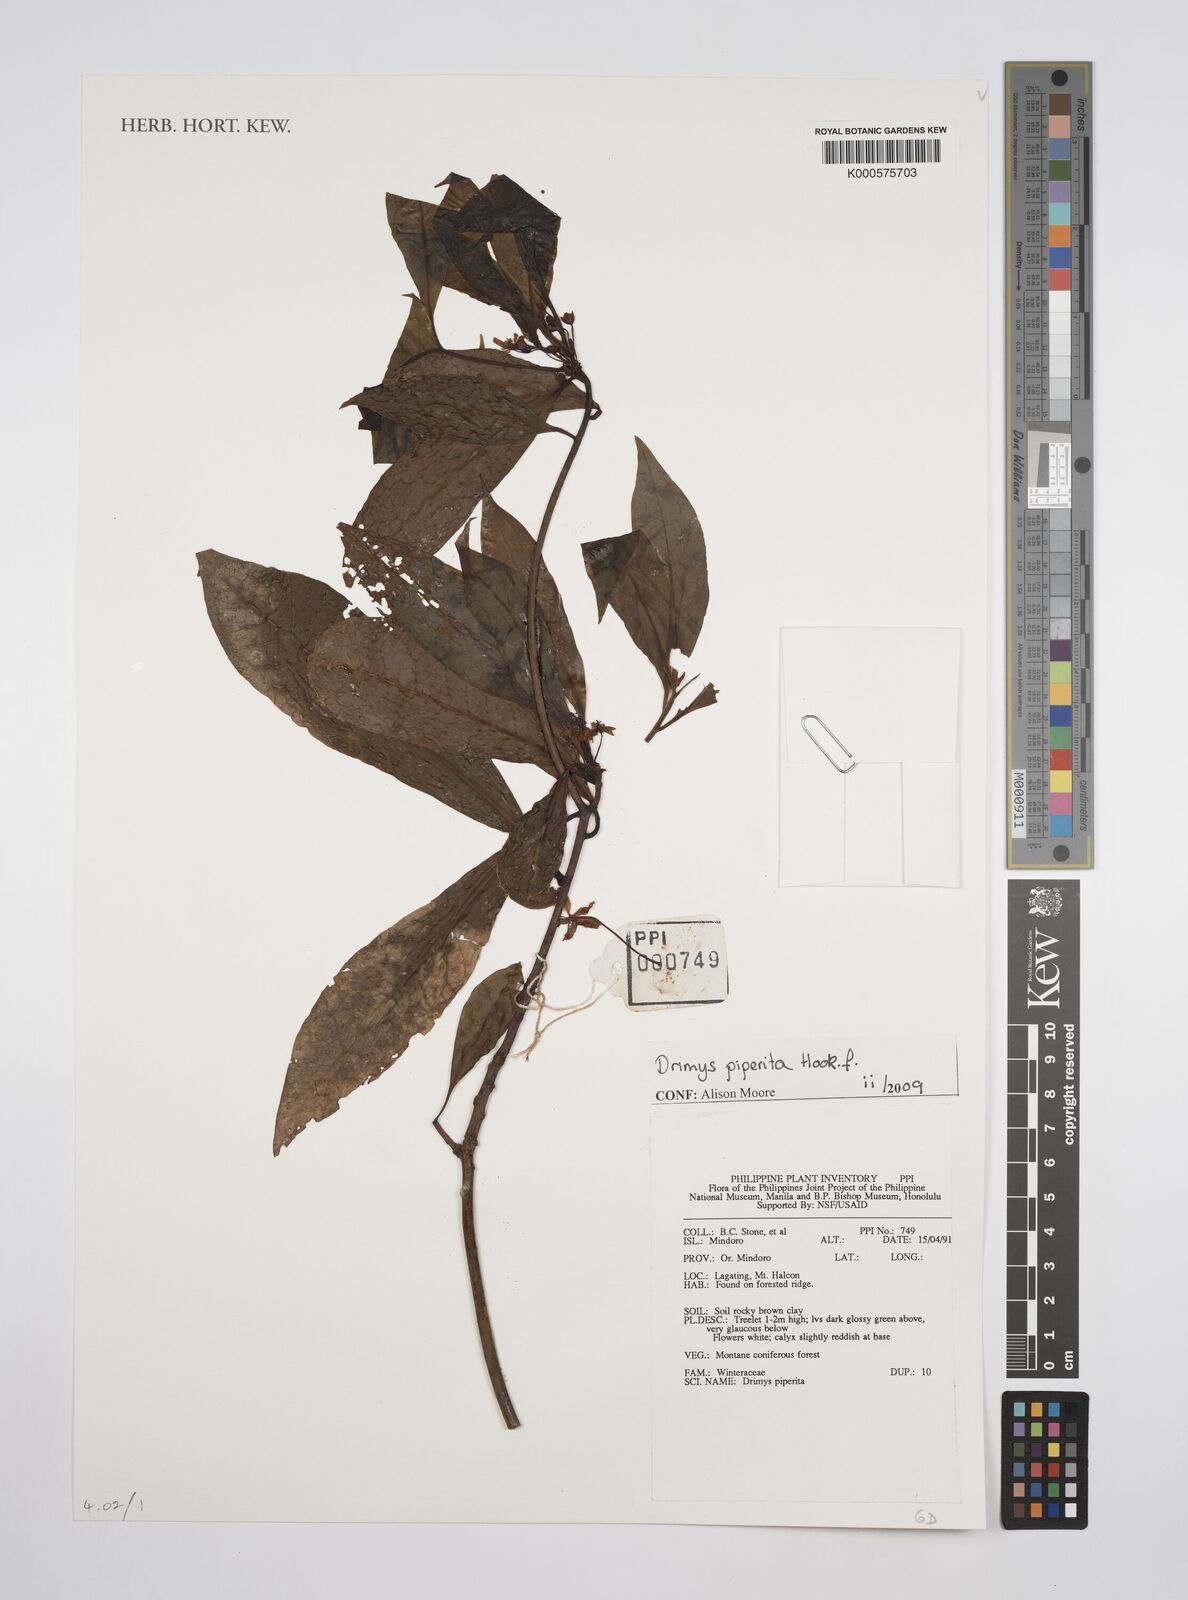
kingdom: Plantae
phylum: Tracheophyta
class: Magnoliopsida
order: Canellales
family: Winteraceae
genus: Drimys
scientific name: Drimys piperita
